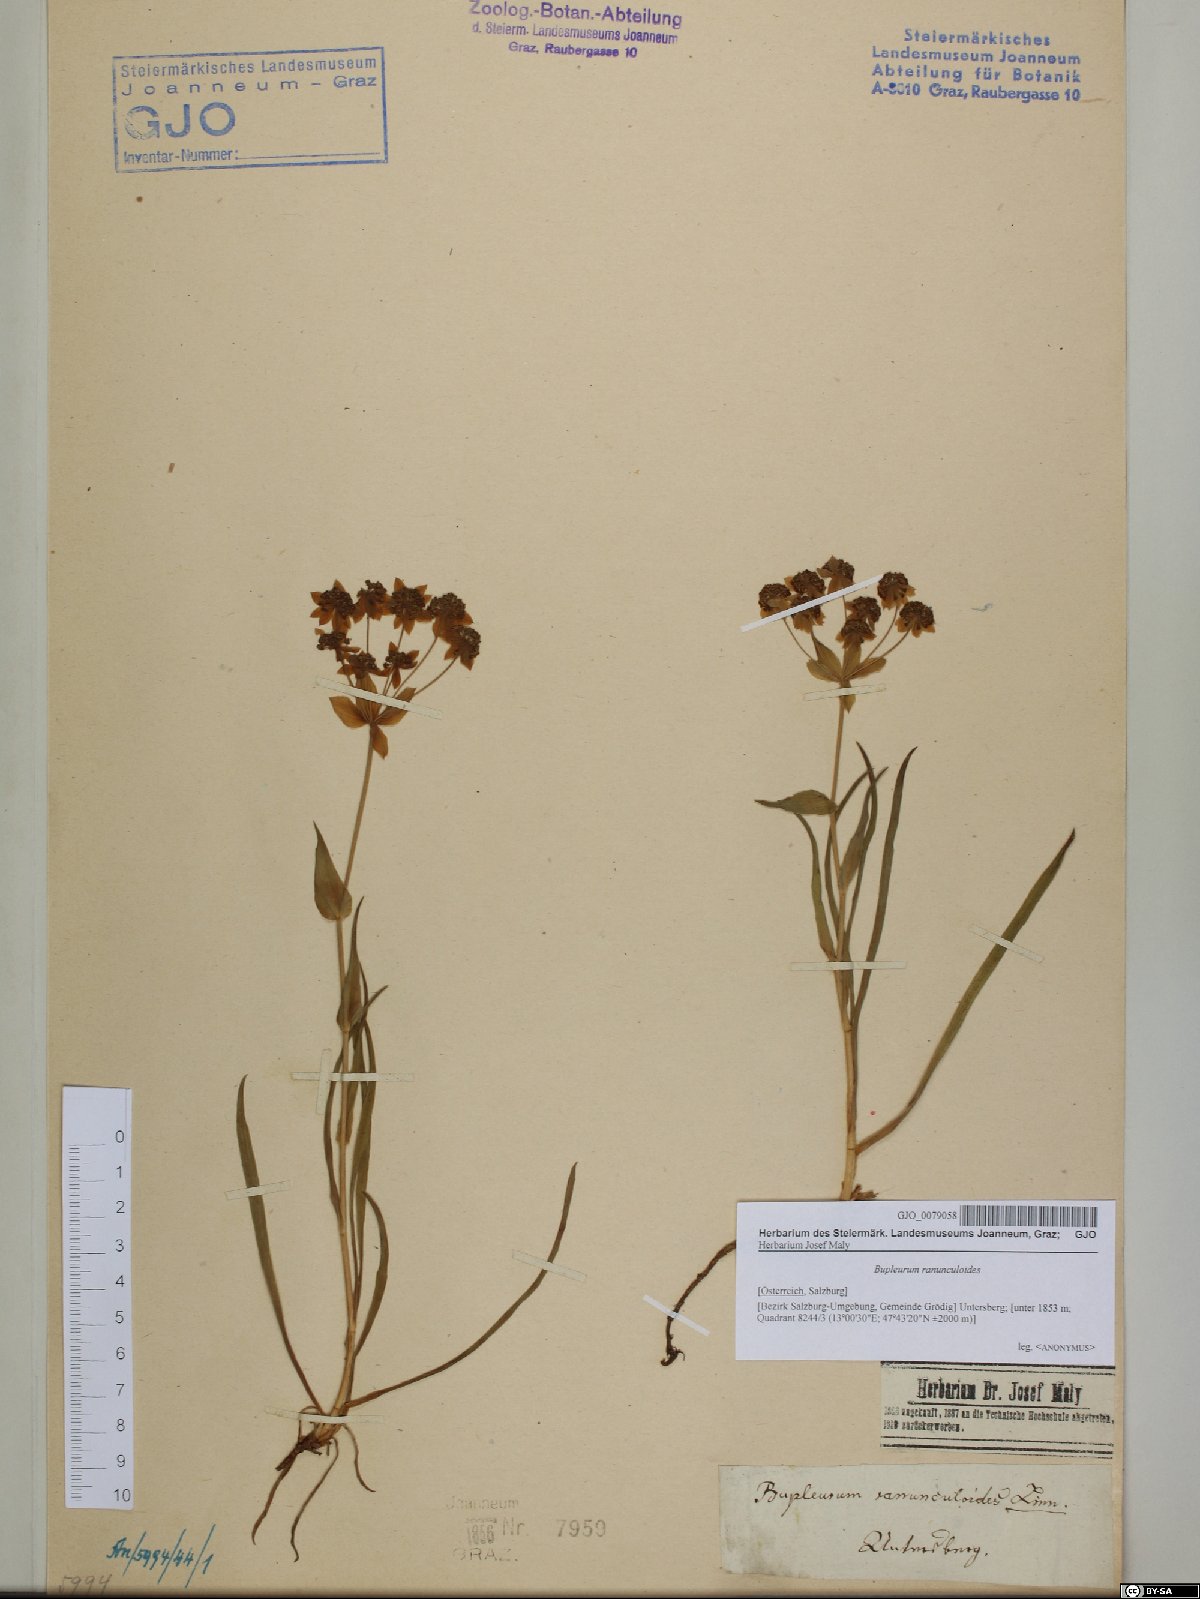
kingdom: Plantae
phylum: Tracheophyta
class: Magnoliopsida
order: Apiales
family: Apiaceae
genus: Bupleurum
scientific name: Bupleurum ranunculoides
